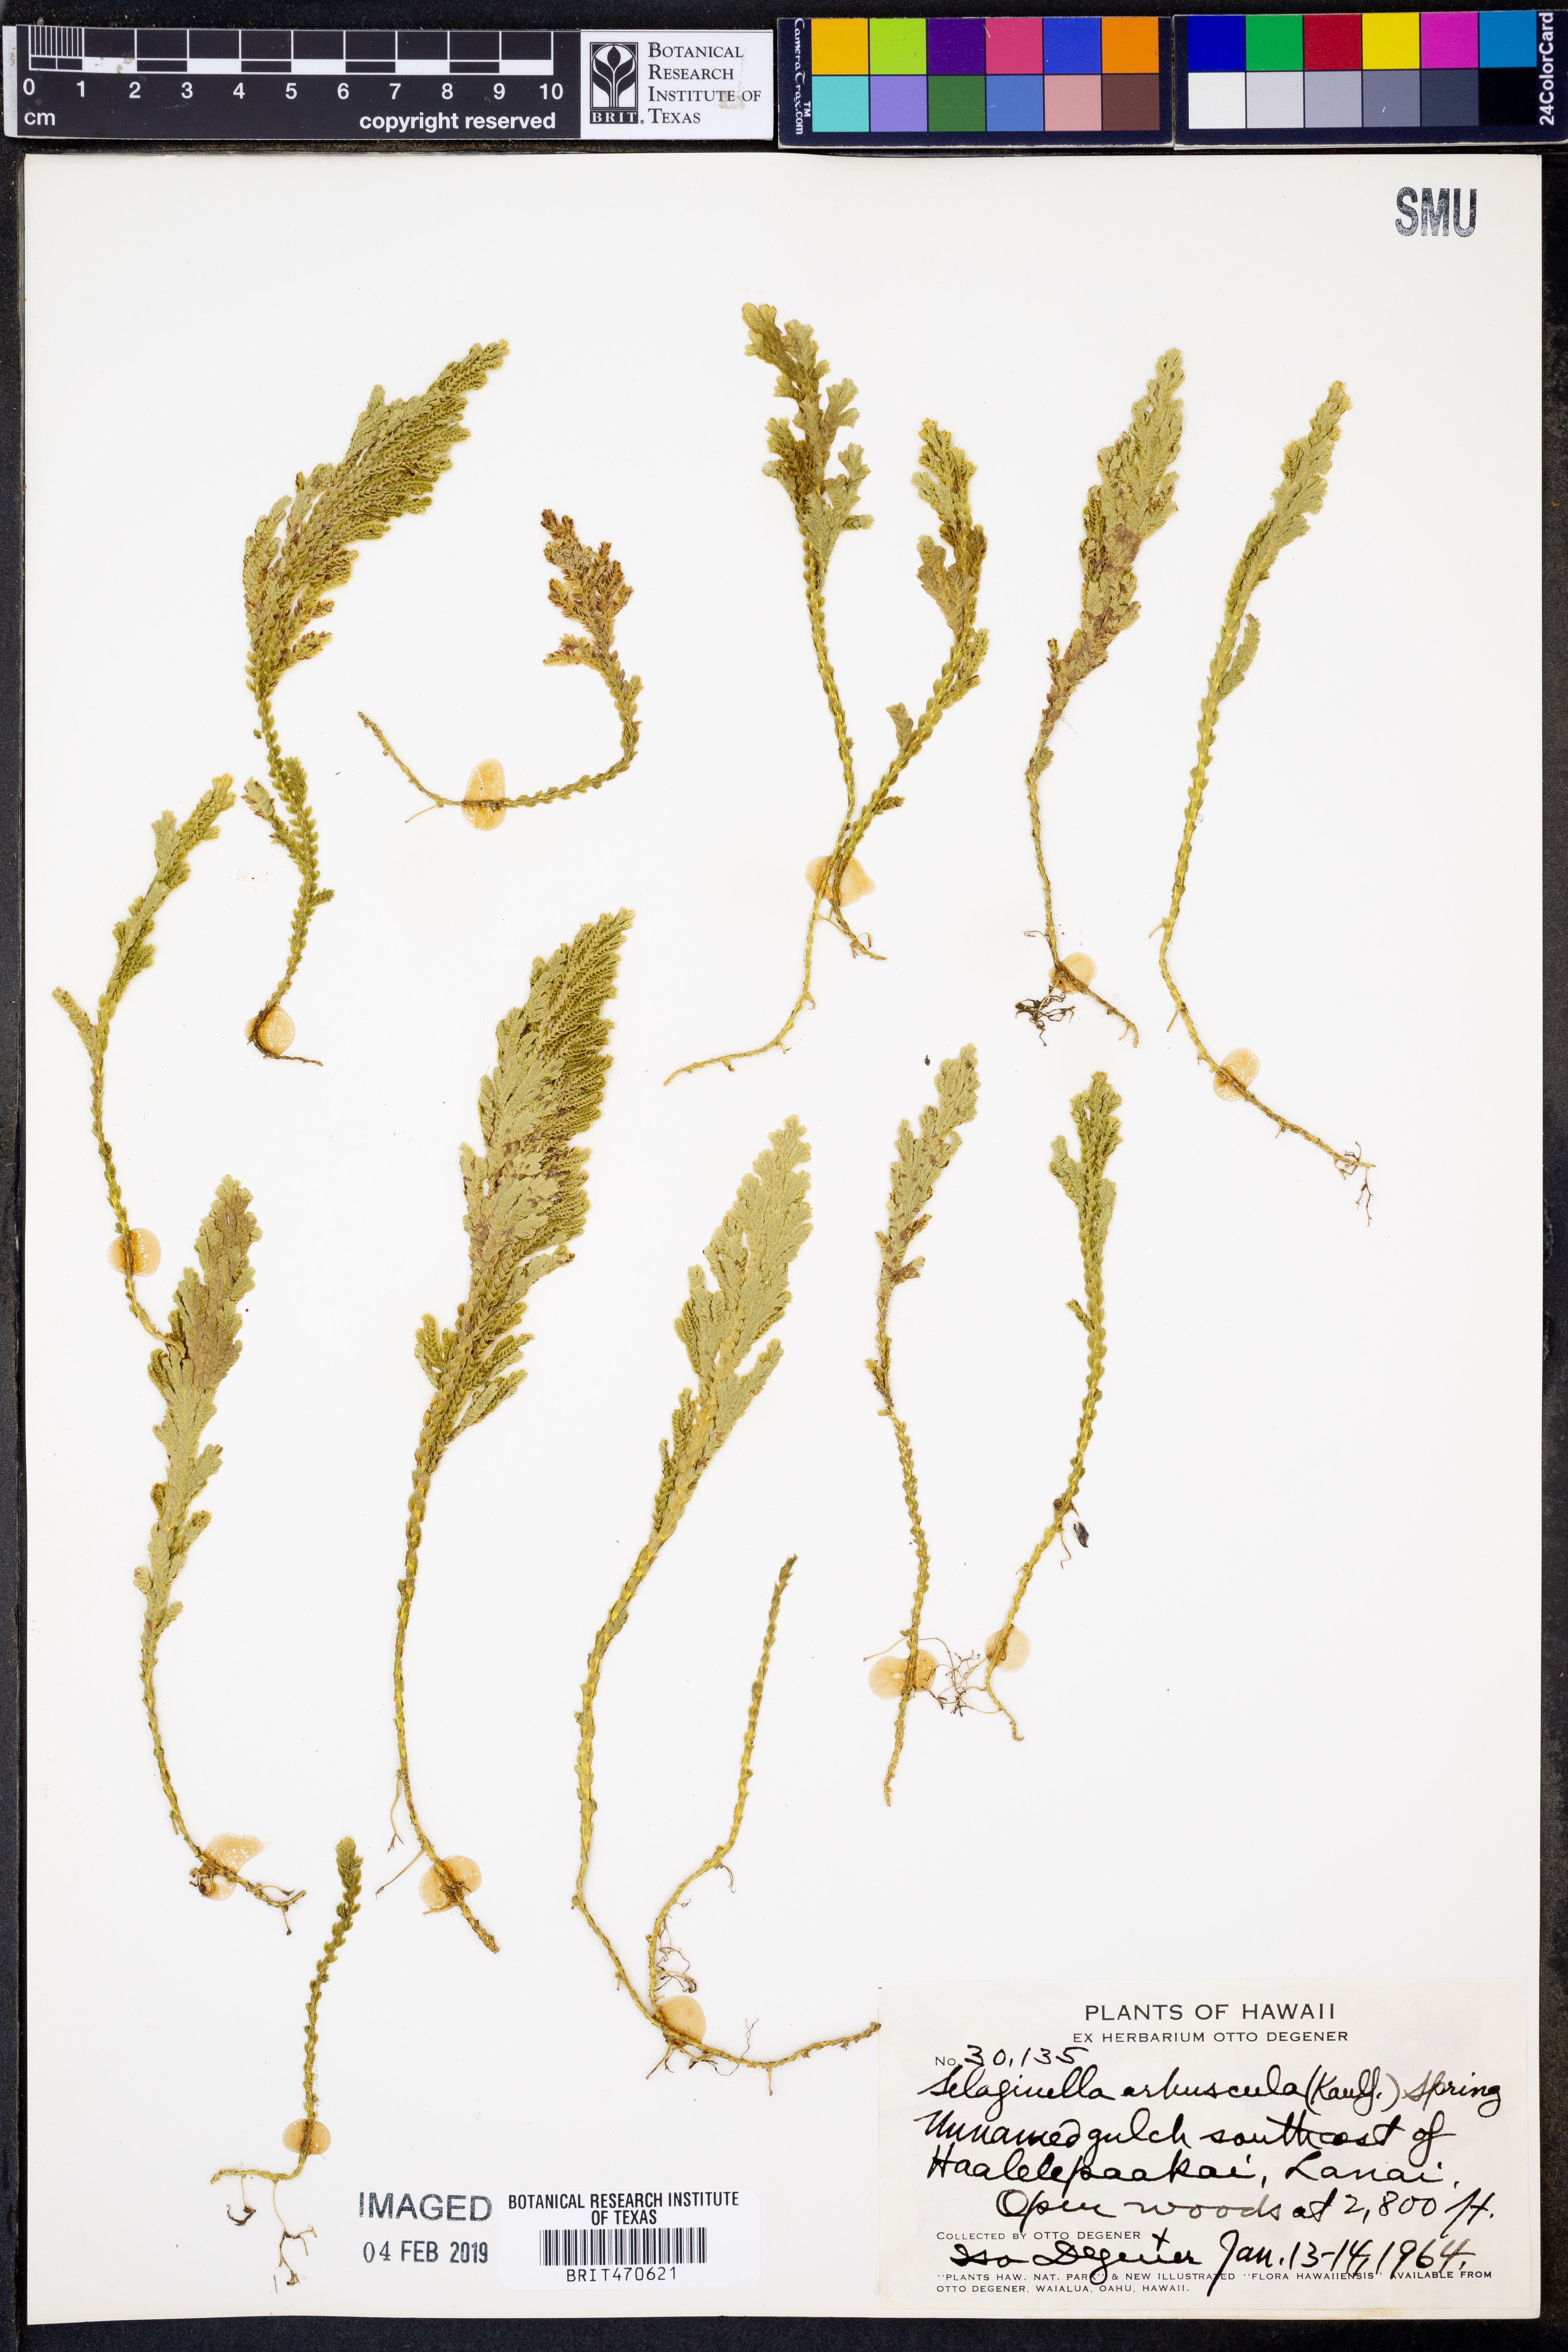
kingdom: Plantae
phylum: Tracheophyta
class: Lycopodiopsida
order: Selaginellales
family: Selaginellaceae
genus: Selaginella
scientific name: Selaginella arbuscula
